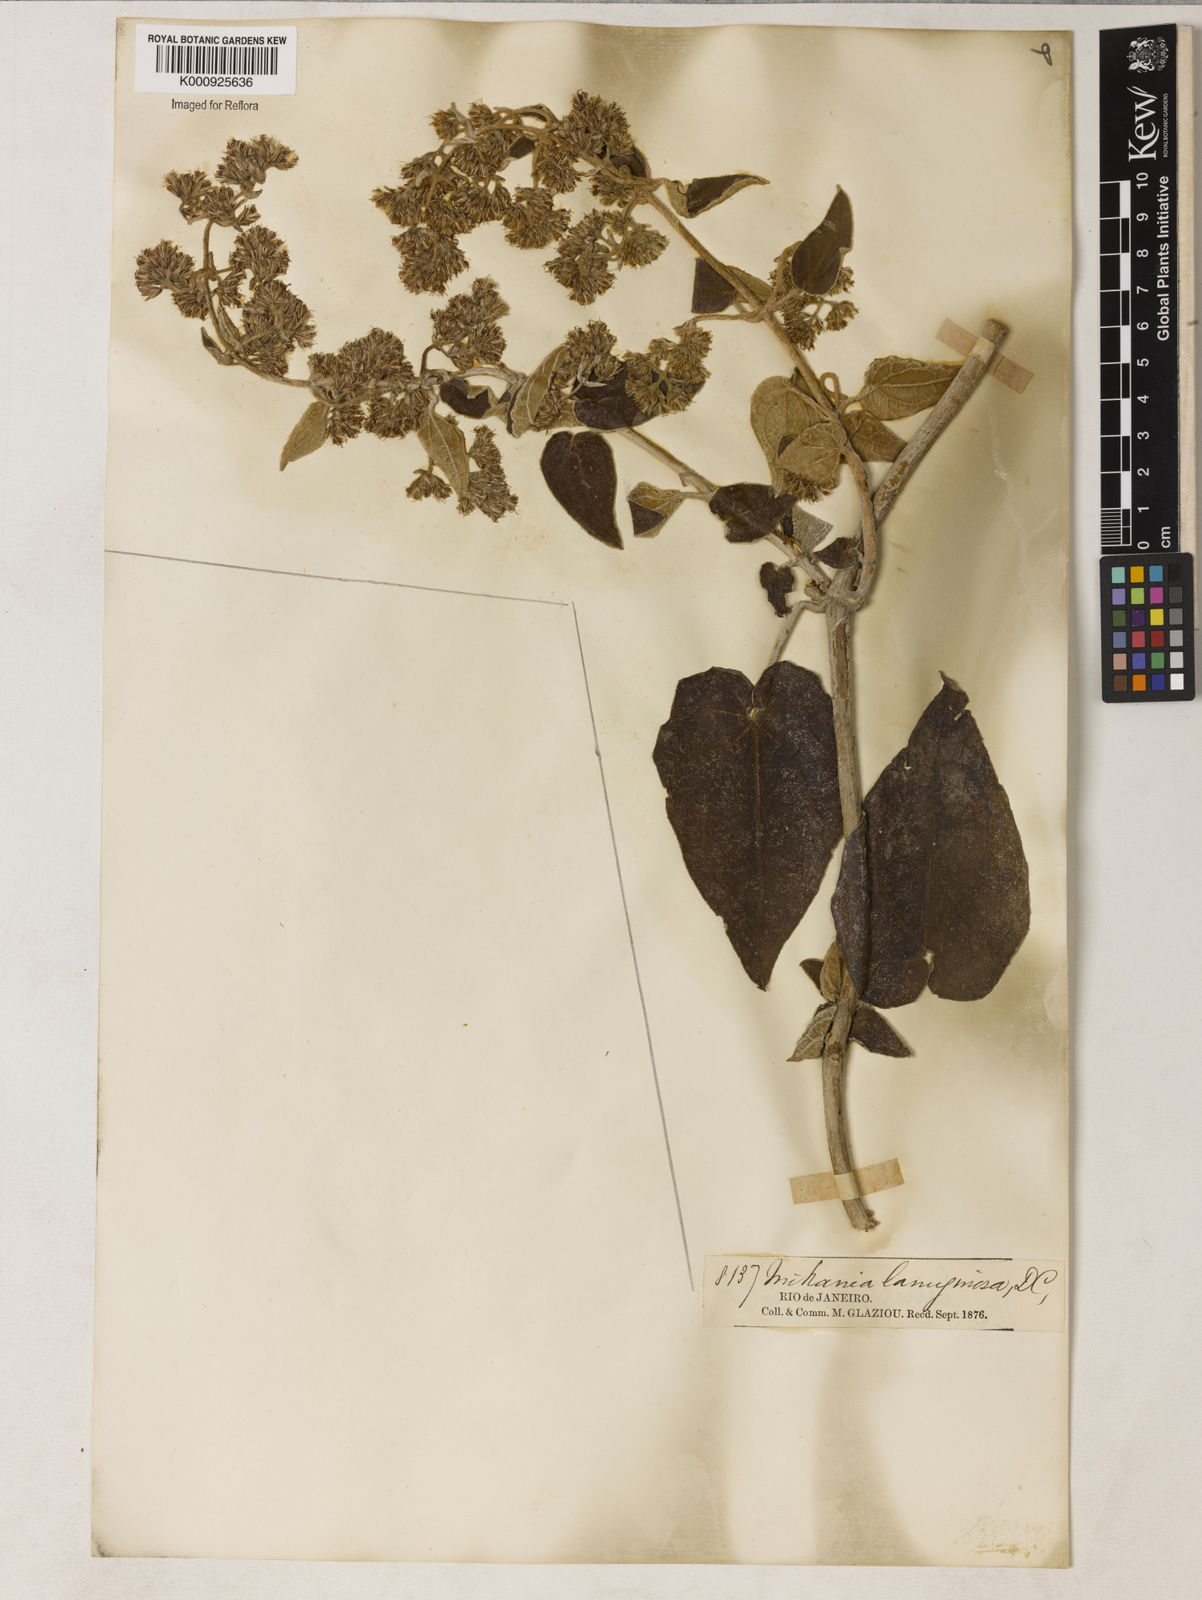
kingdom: Plantae
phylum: Tracheophyta
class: Magnoliopsida
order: Asterales
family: Asteraceae
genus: Mikania
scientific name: Mikania laevigata
